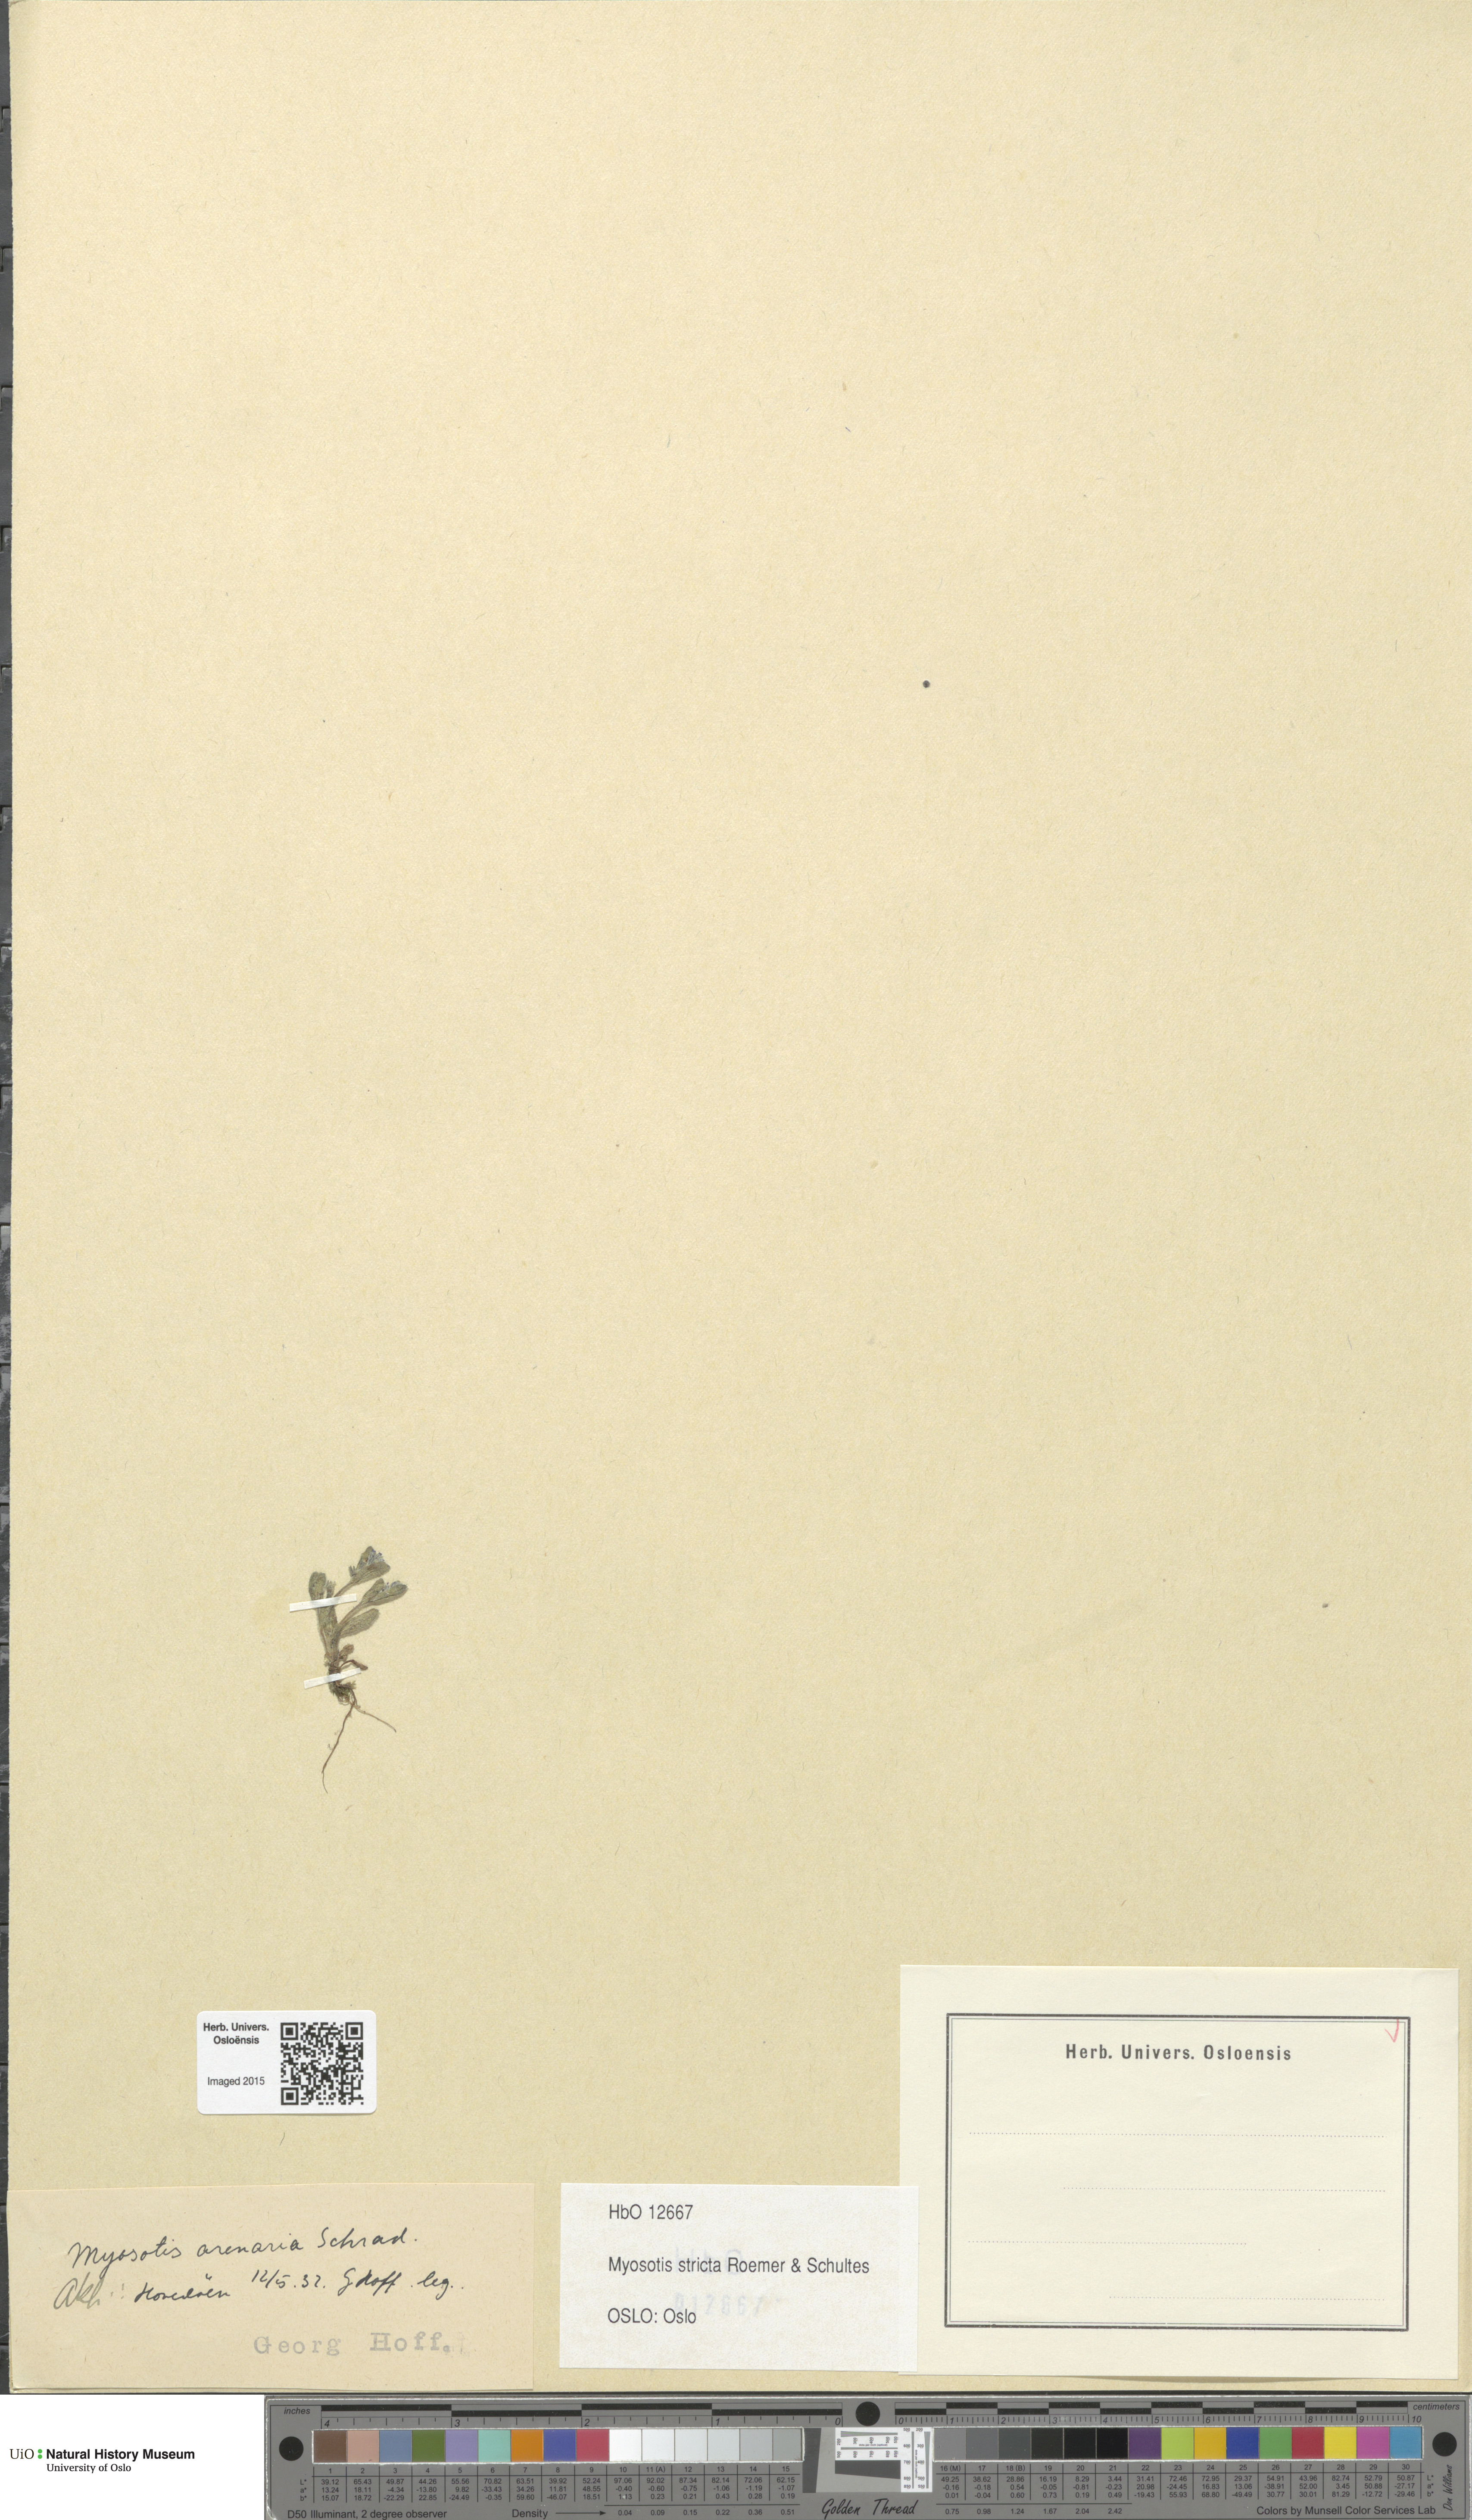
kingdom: Plantae
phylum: Tracheophyta
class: Magnoliopsida
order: Boraginales
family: Boraginaceae
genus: Myosotis
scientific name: Myosotis stricta
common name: Strict forget-me-not
